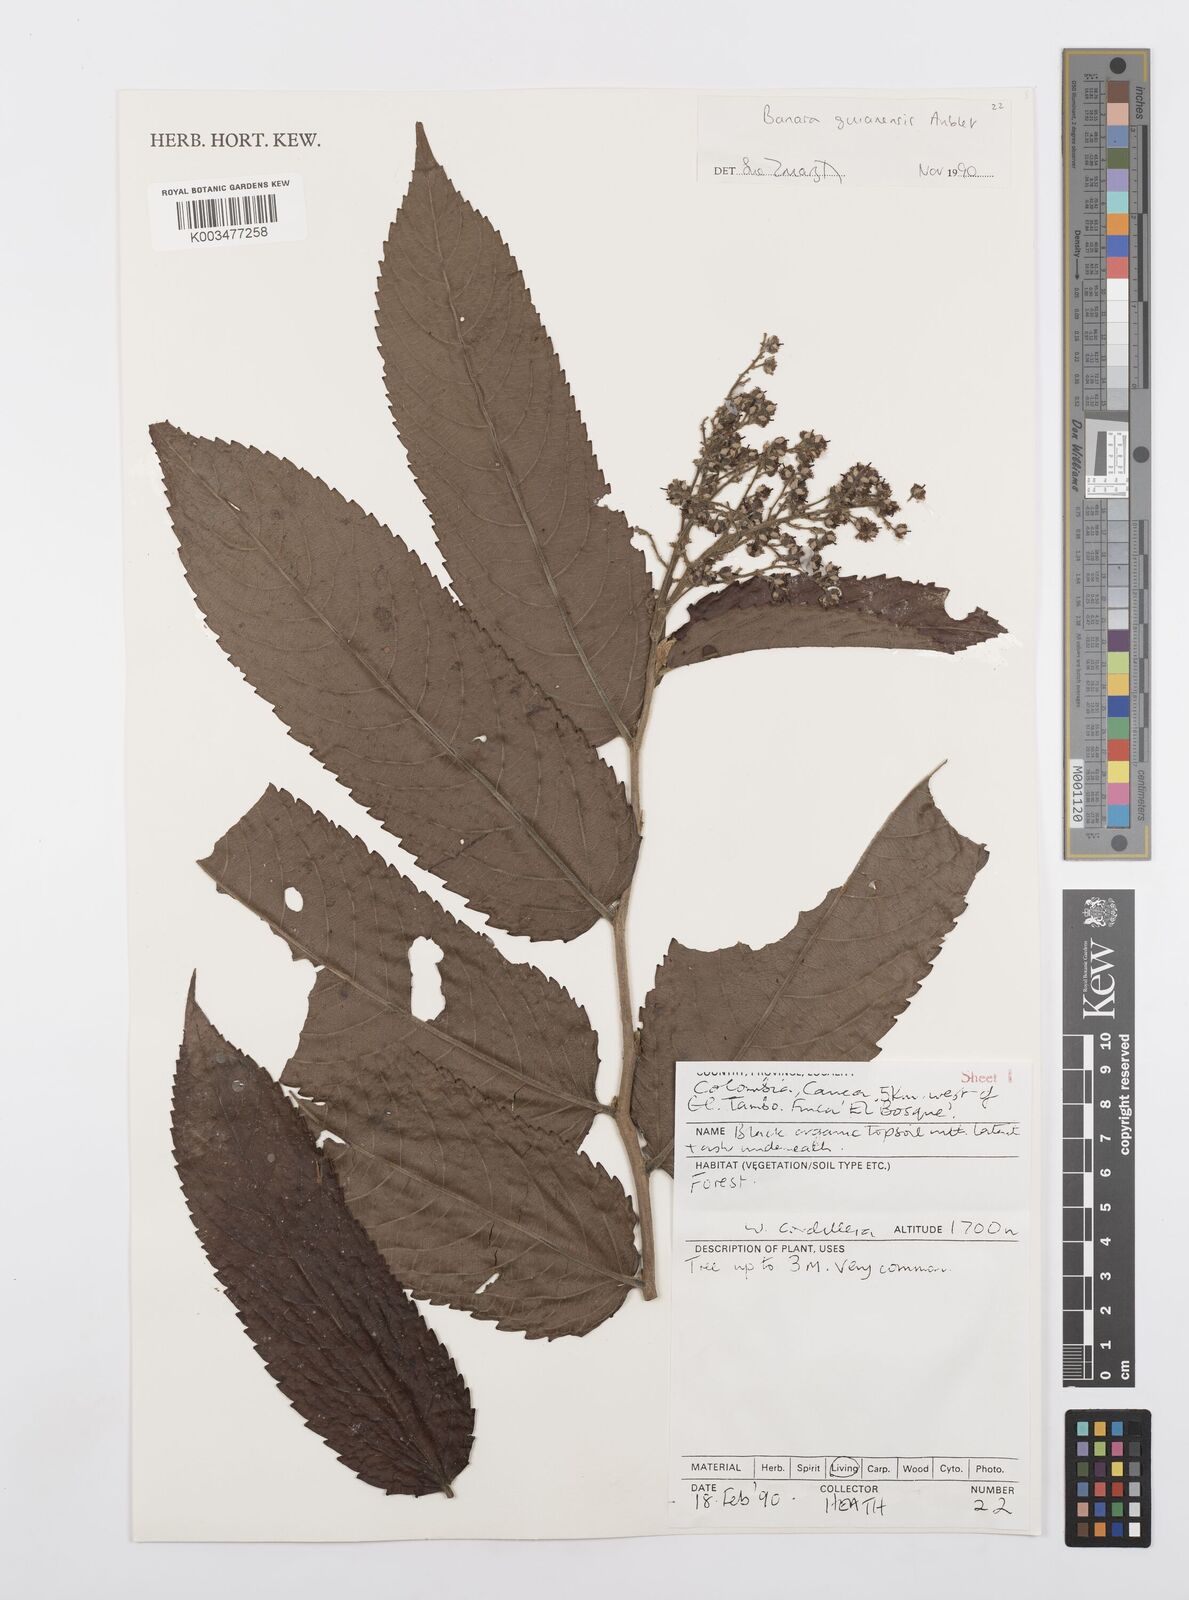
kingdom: Plantae
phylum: Tracheophyta
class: Magnoliopsida
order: Malpighiales
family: Salicaceae
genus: Banara
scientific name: Banara guianensis
